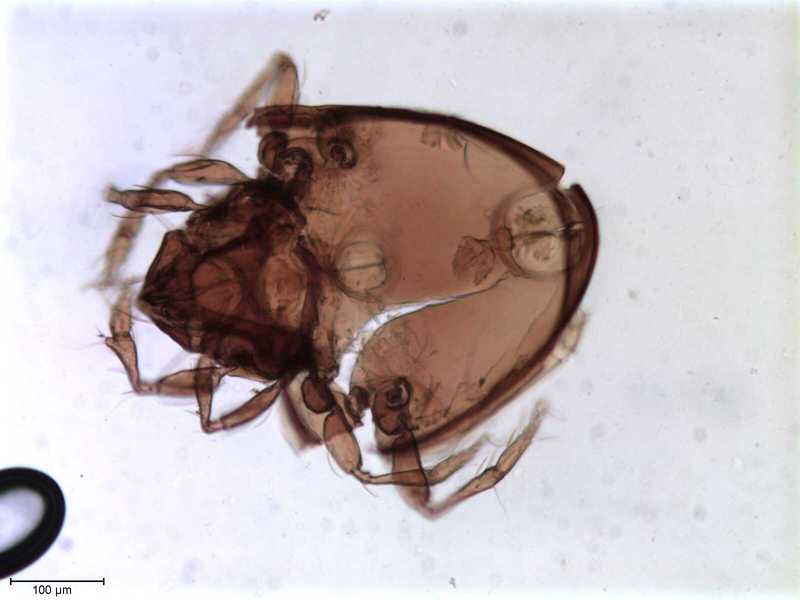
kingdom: Animalia
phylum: Arthropoda
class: Arachnida
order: Sarcoptiformes
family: Oribatulidae
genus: Oribatula
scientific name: Oribatula
